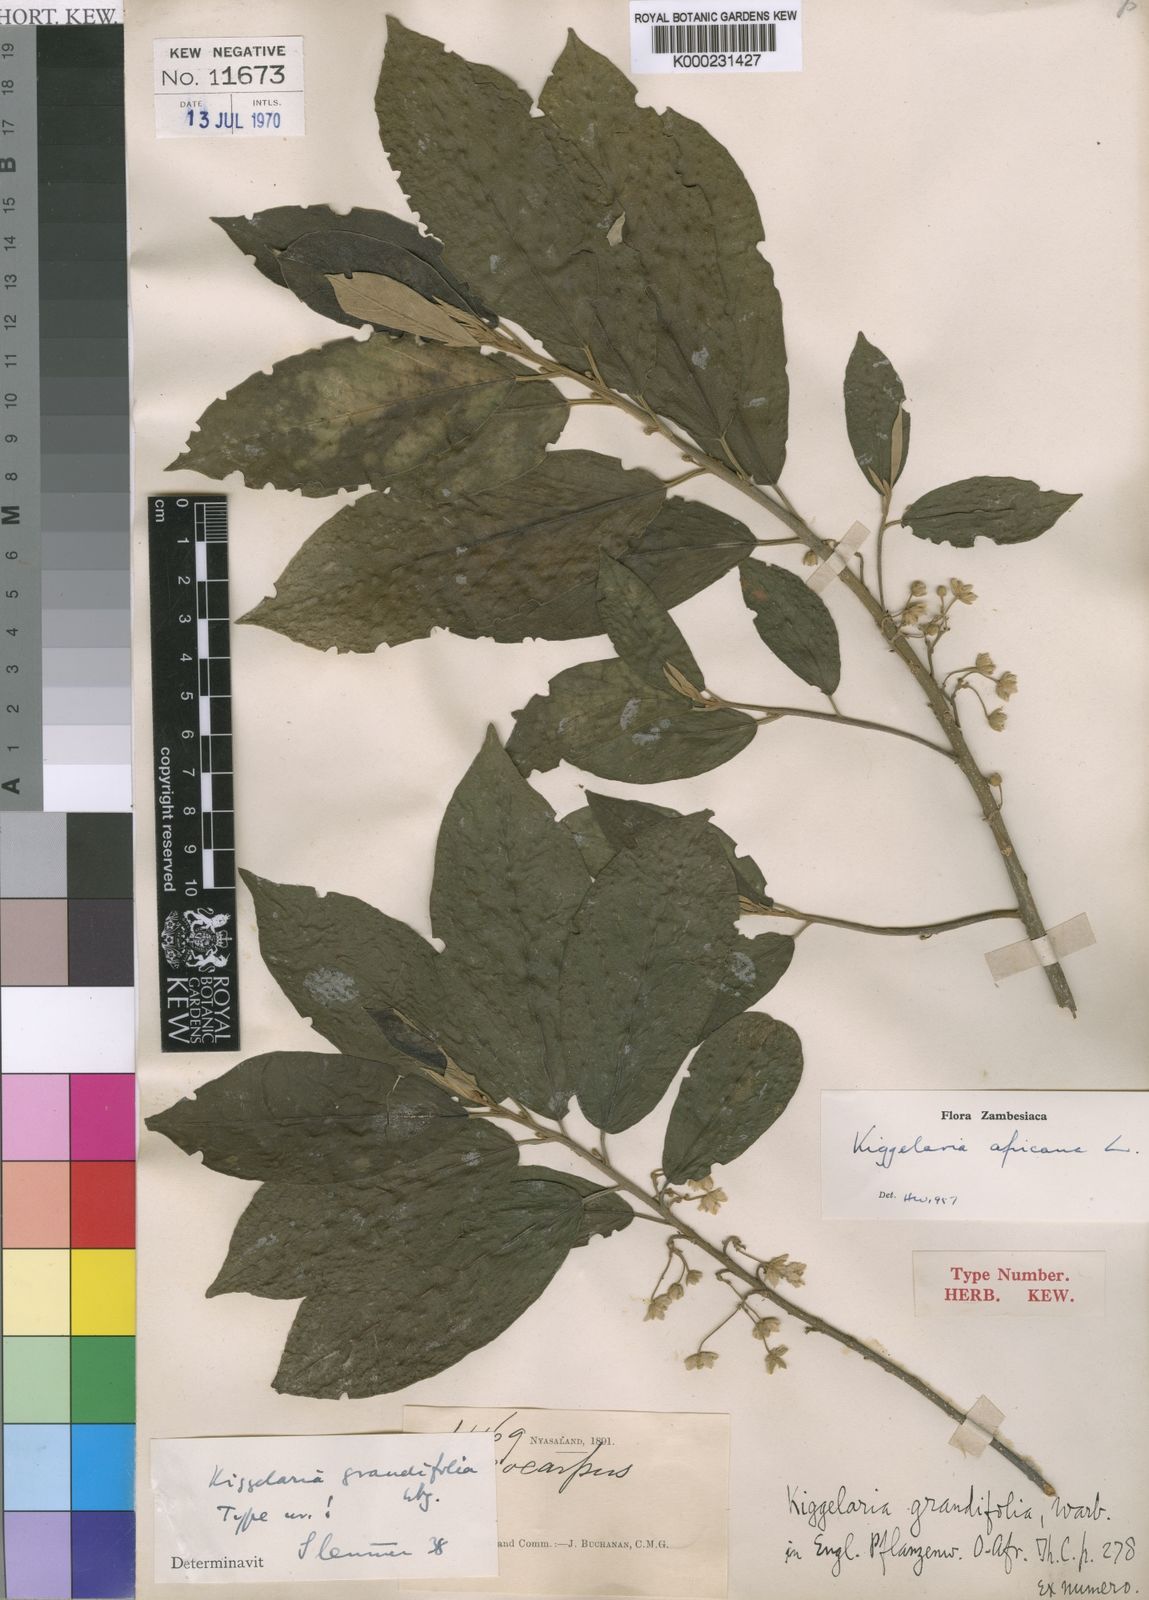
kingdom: Plantae
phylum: Tracheophyta
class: Magnoliopsida
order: Malpighiales
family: Achariaceae
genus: Kiggelaria
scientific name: Kiggelaria africana
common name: Wild peach
